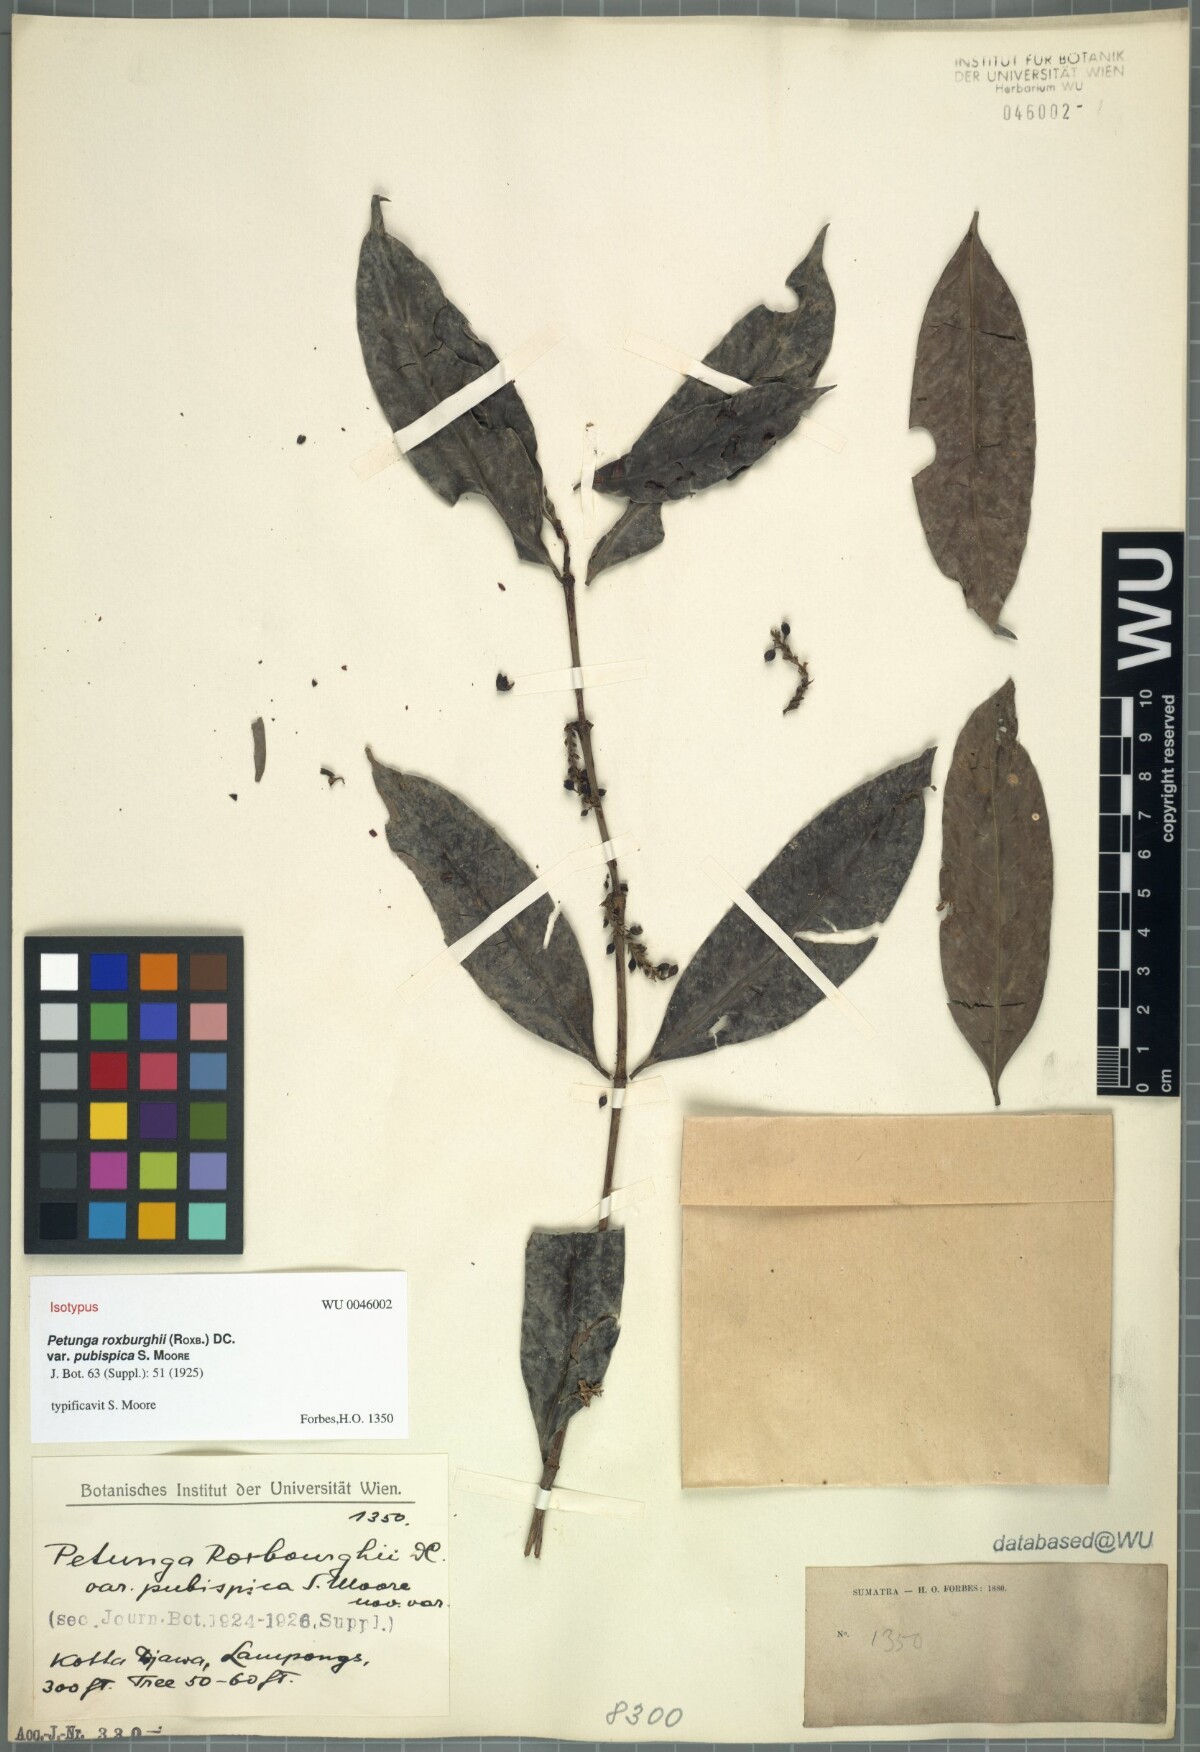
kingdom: Plantae
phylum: Tracheophyta
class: Magnoliopsida
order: Gentianales
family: Rubiaceae
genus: Hypobathrum
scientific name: Hypobathrum racemosum
